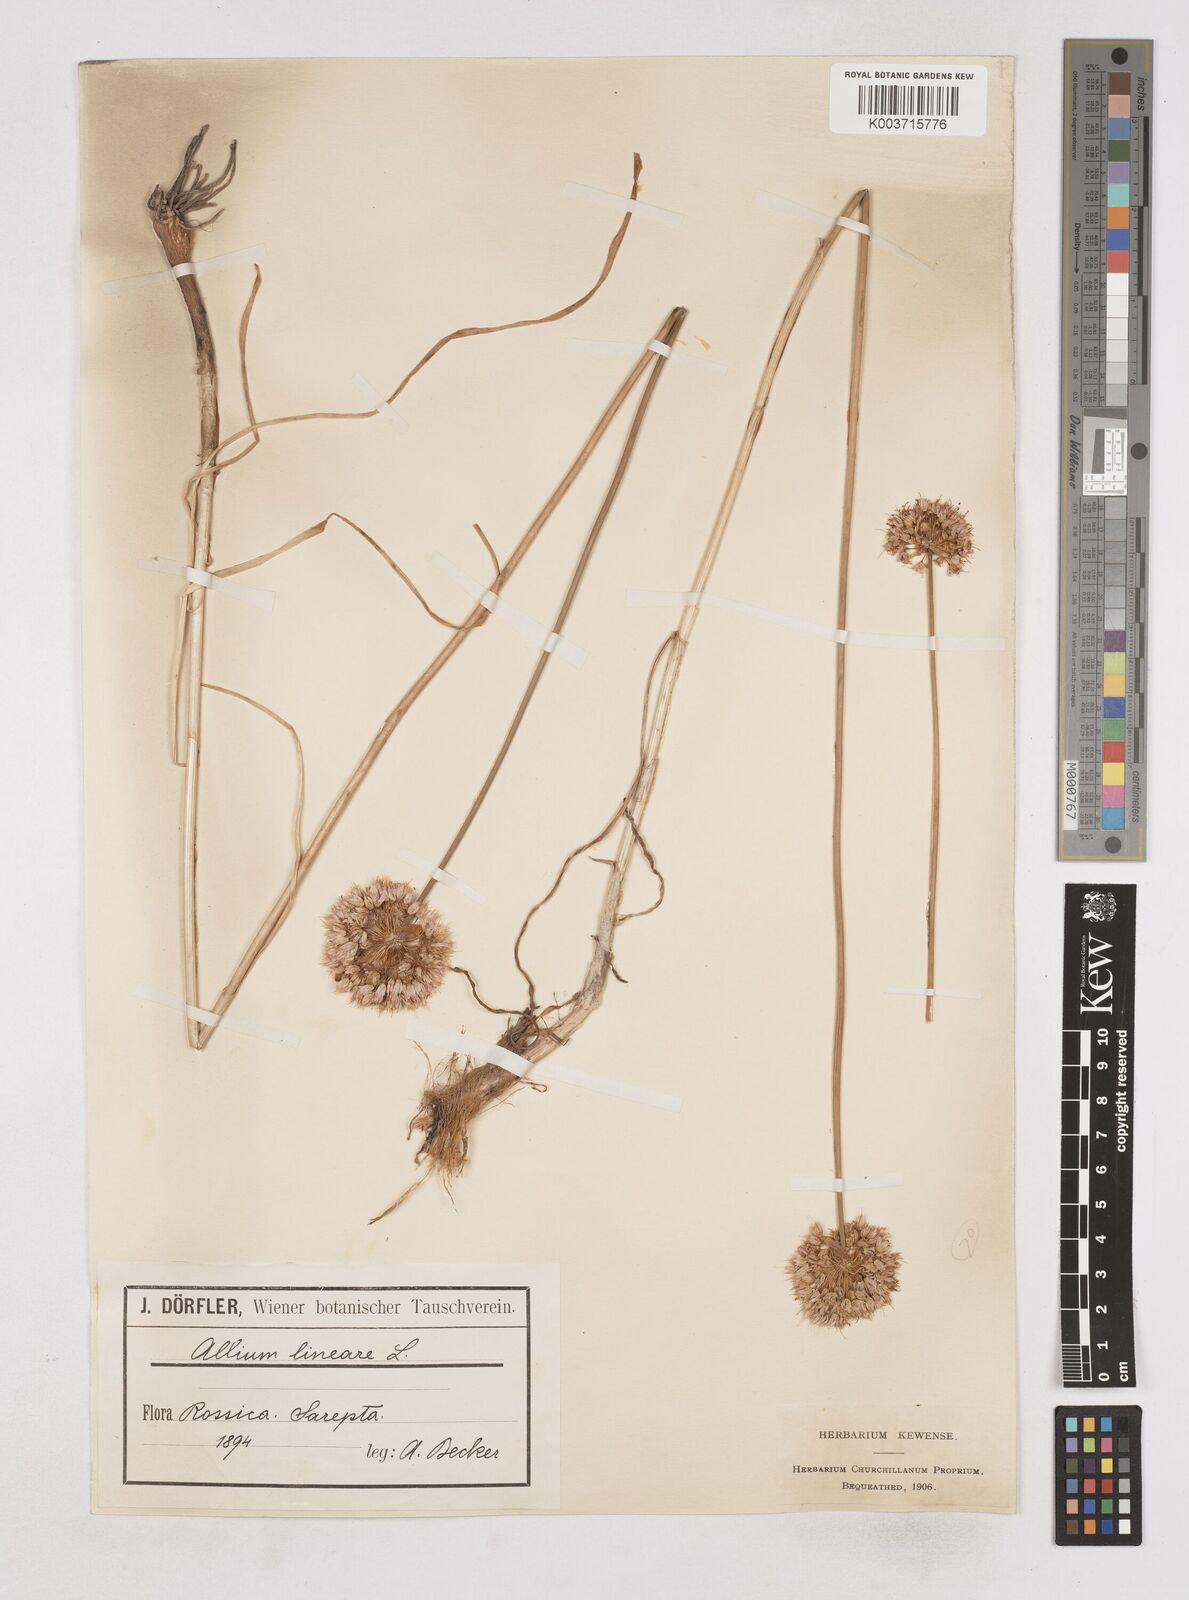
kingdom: Plantae
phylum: Tracheophyta
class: Liliopsida
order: Asparagales
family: Amaryllidaceae
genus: Allium
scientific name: Allium lineare
